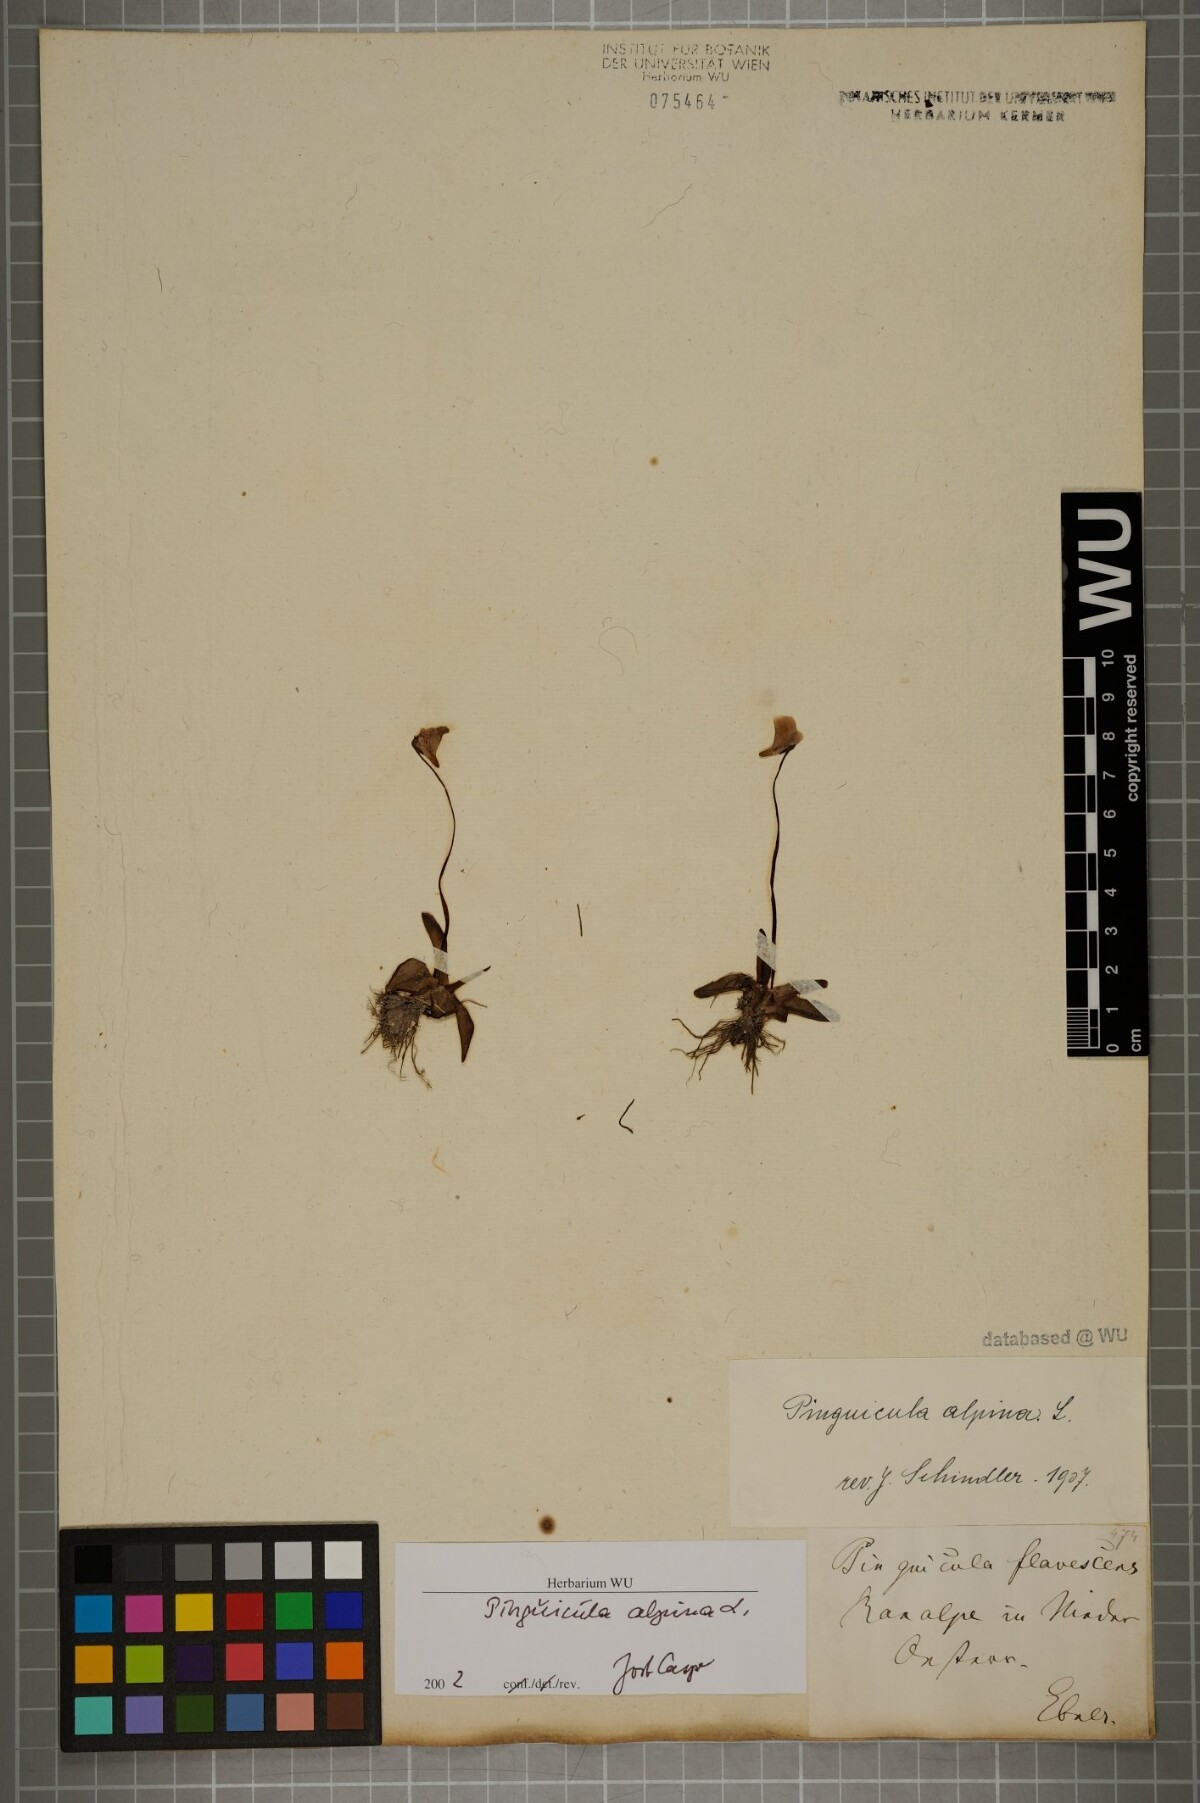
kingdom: Plantae
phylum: Tracheophyta
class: Magnoliopsida
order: Lamiales
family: Lentibulariaceae
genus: Pinguicula
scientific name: Pinguicula alpina
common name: Alpine butterwort
